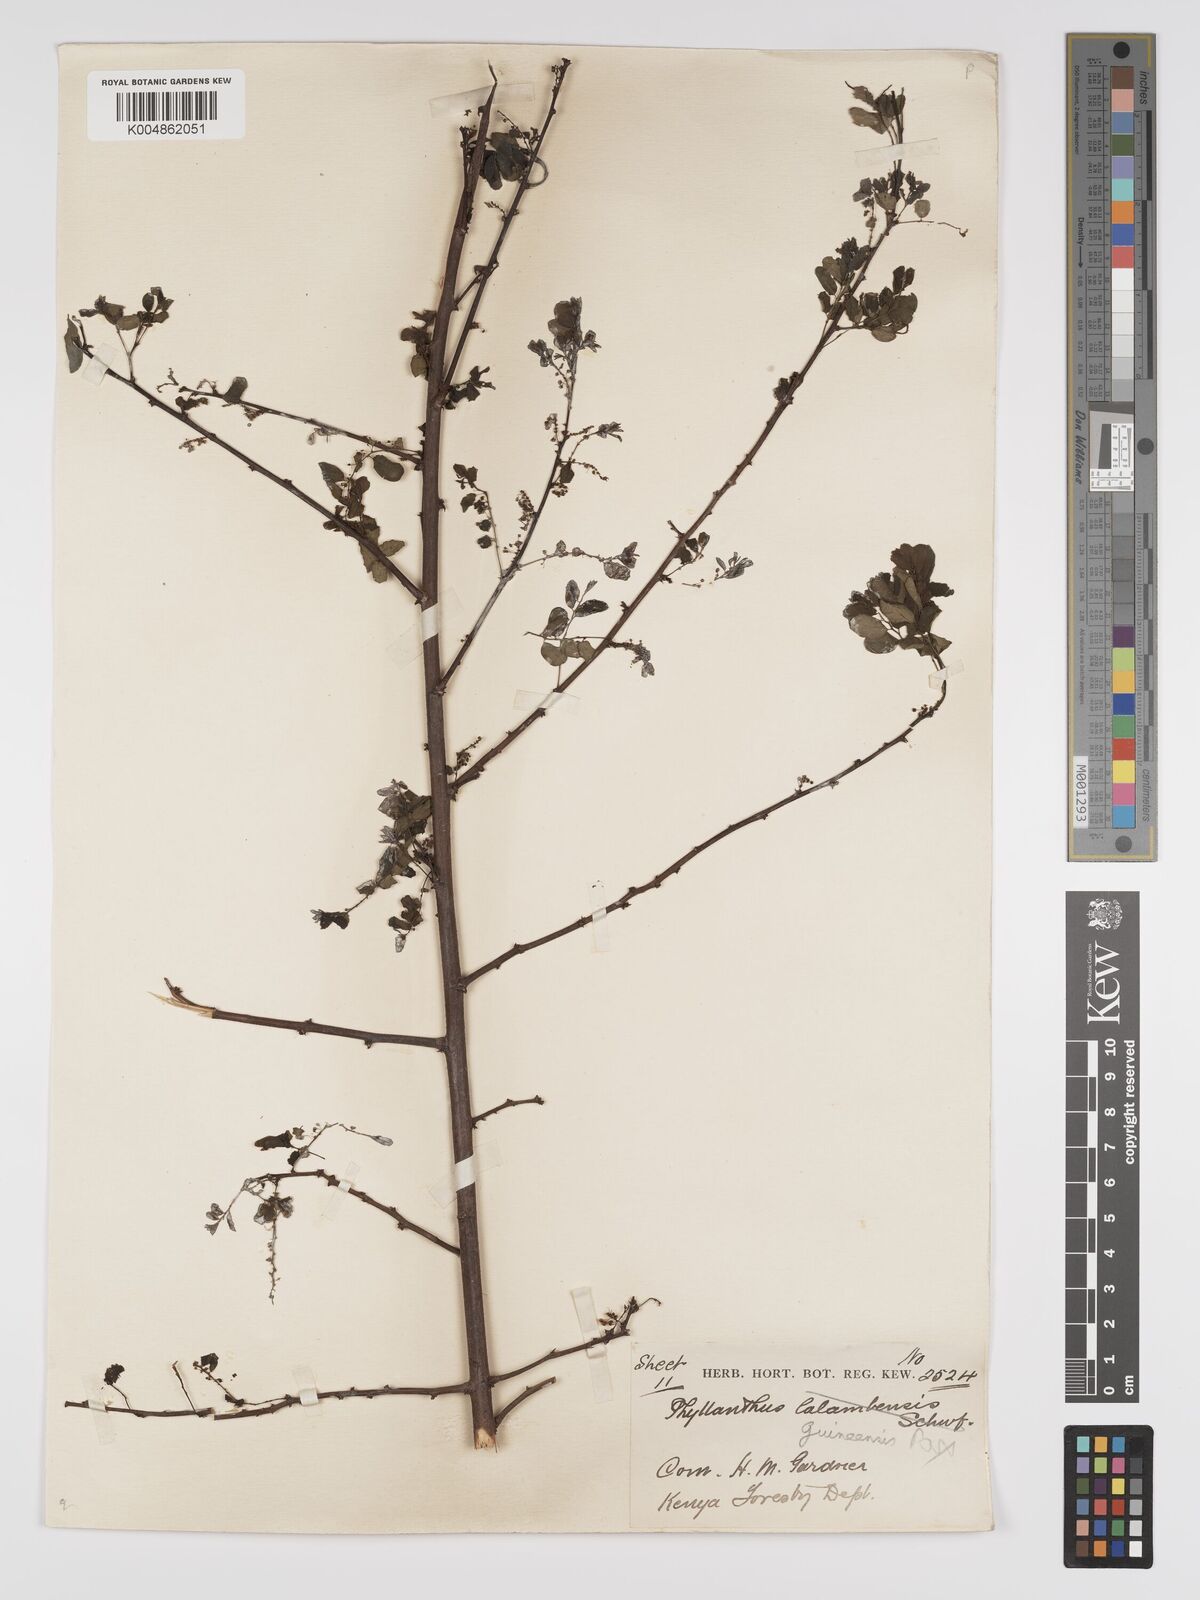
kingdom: Plantae
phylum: Tracheophyta
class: Magnoliopsida
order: Malpighiales
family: Phyllanthaceae
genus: Phyllanthus
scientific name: Phyllanthus ovalifolius
